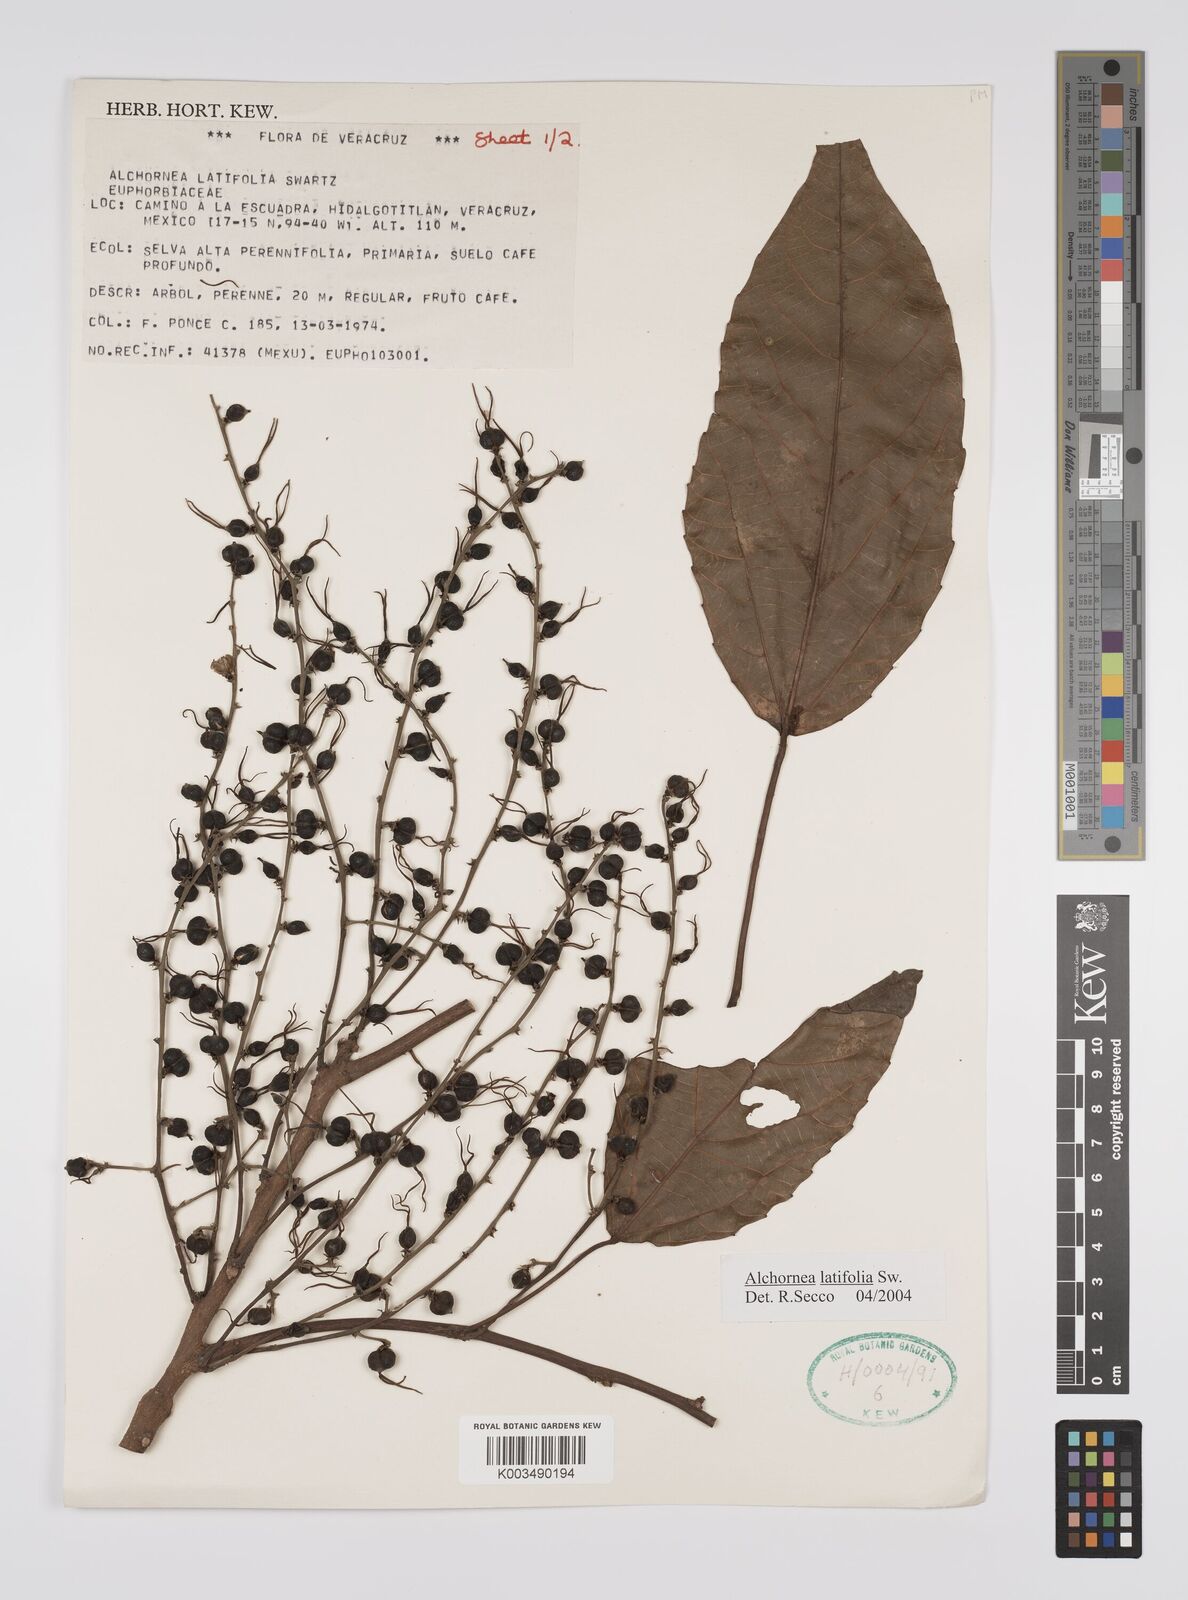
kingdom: Plantae
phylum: Tracheophyta
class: Magnoliopsida
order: Malpighiales
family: Euphorbiaceae
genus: Alchornea
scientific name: Alchornea latifolia
